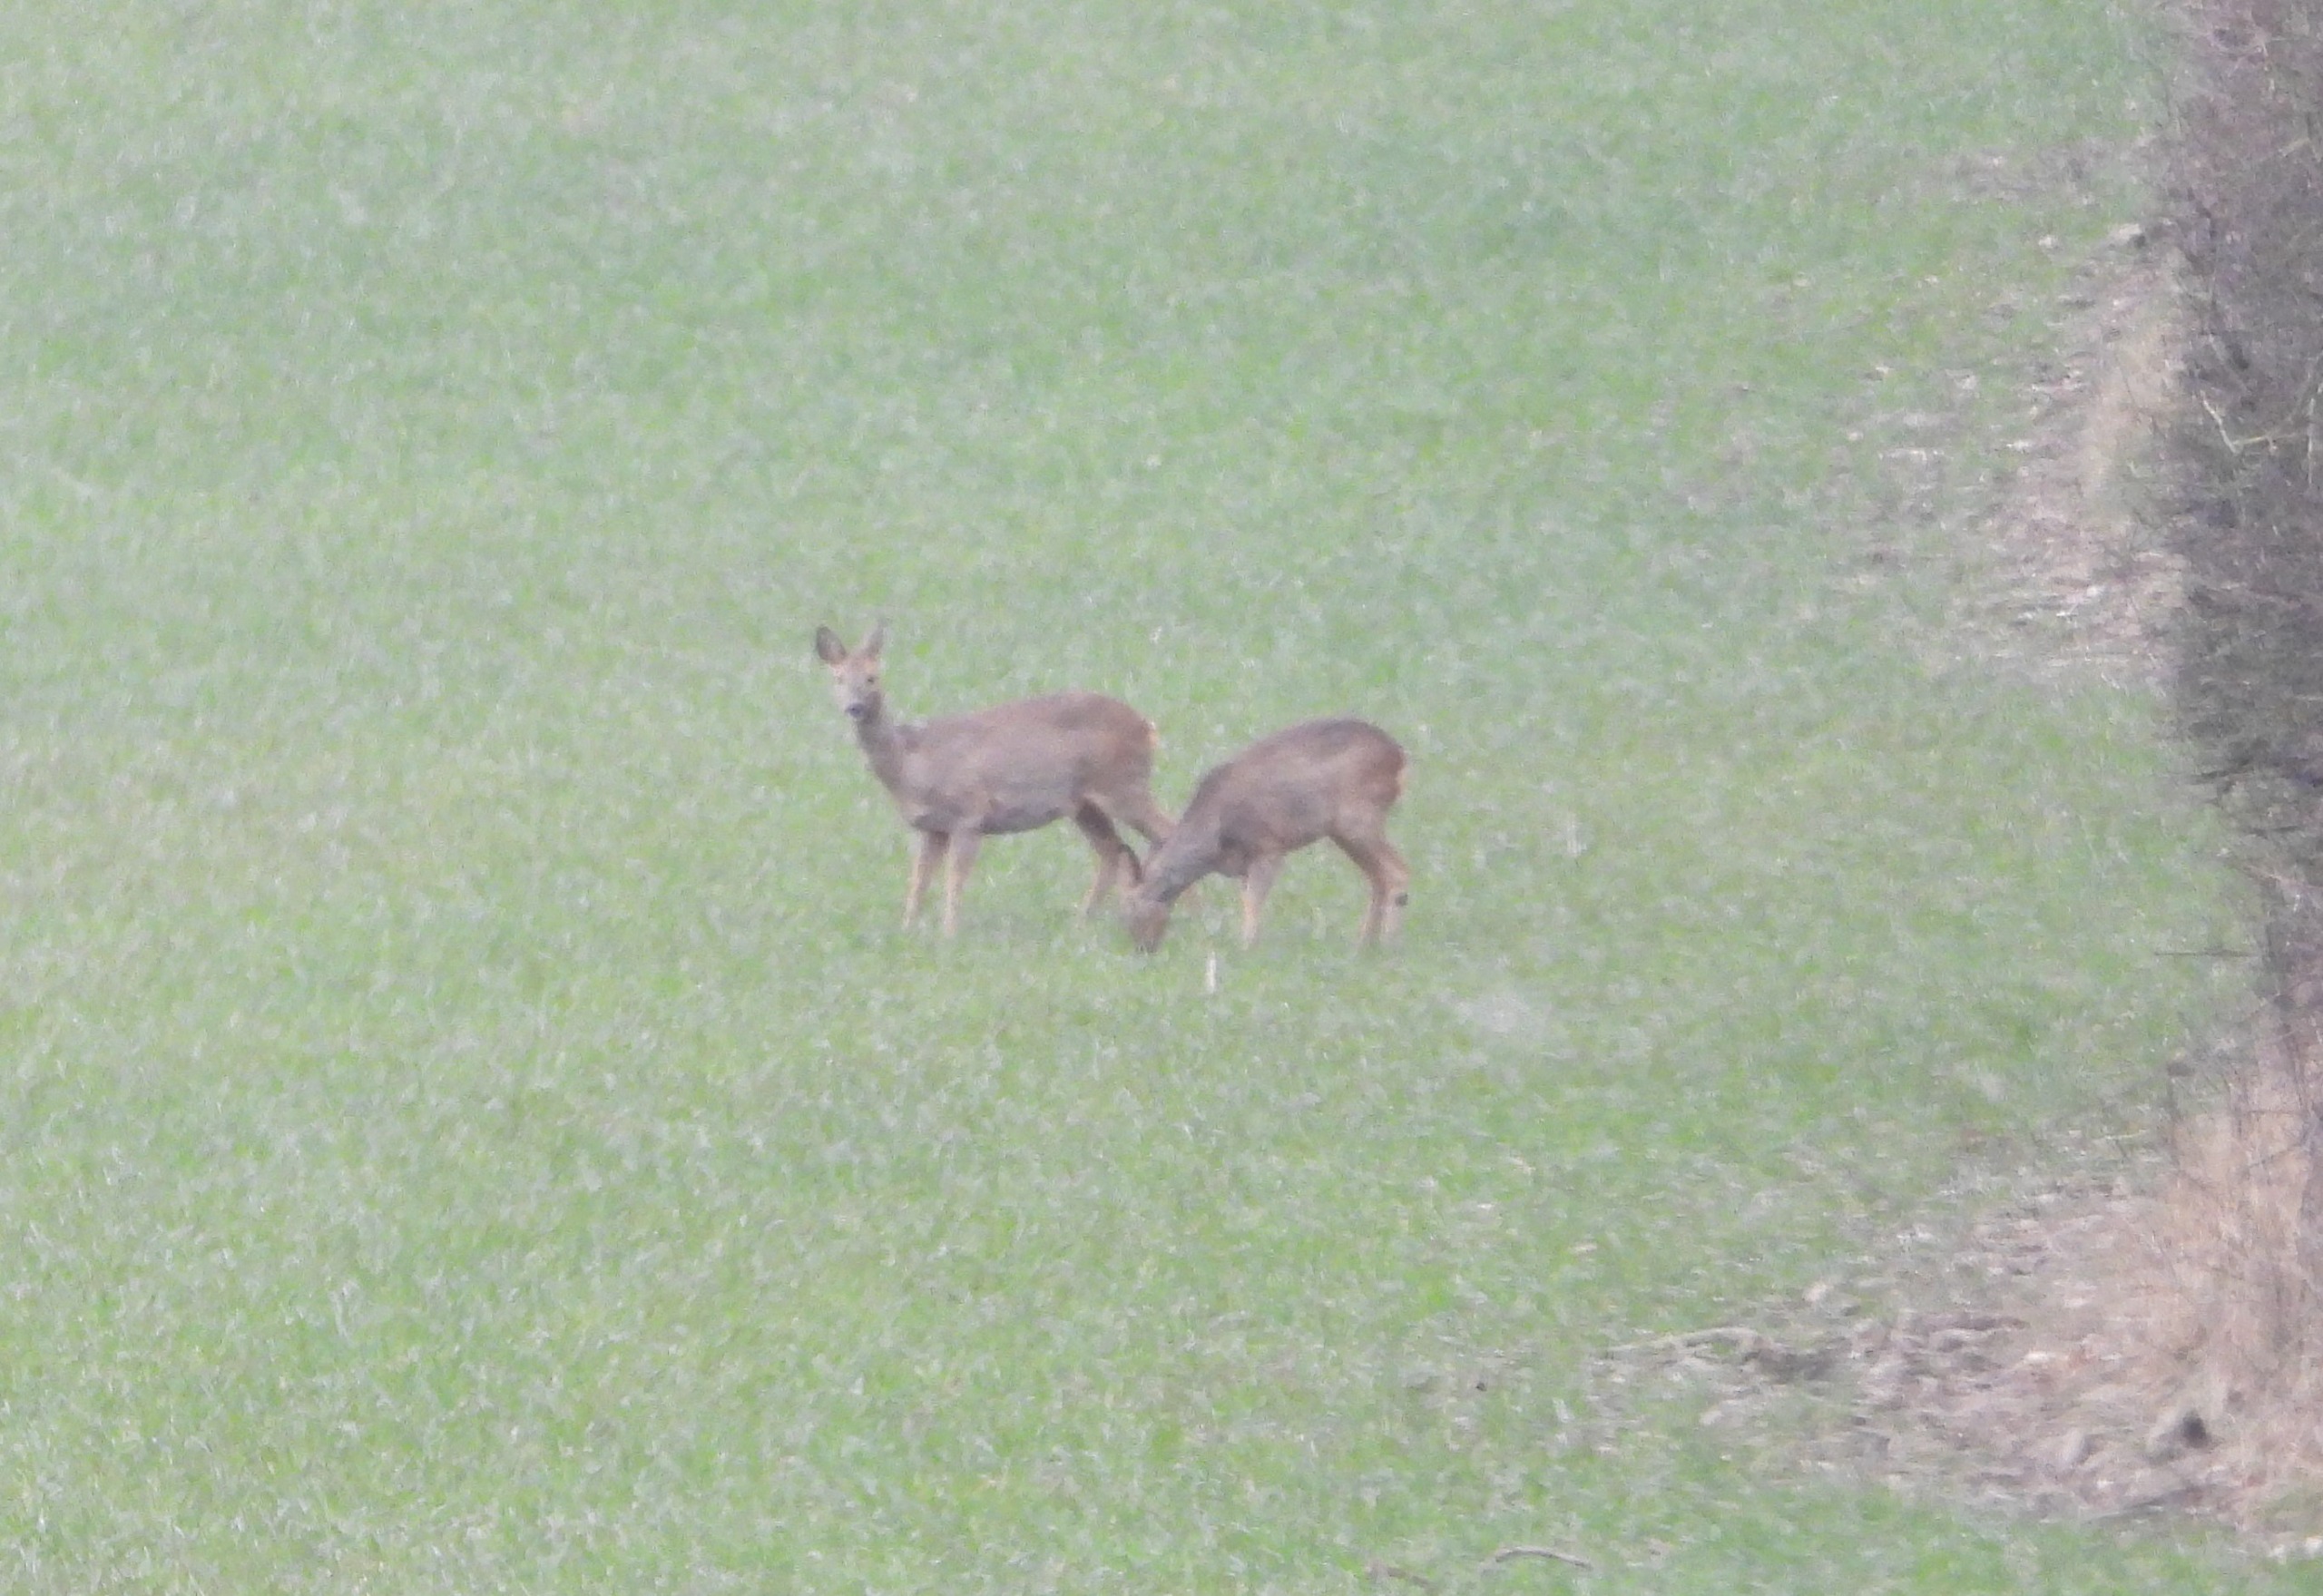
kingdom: Animalia
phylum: Chordata
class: Mammalia
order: Artiodactyla
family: Cervidae
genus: Capreolus
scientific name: Capreolus capreolus
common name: Rådyr
